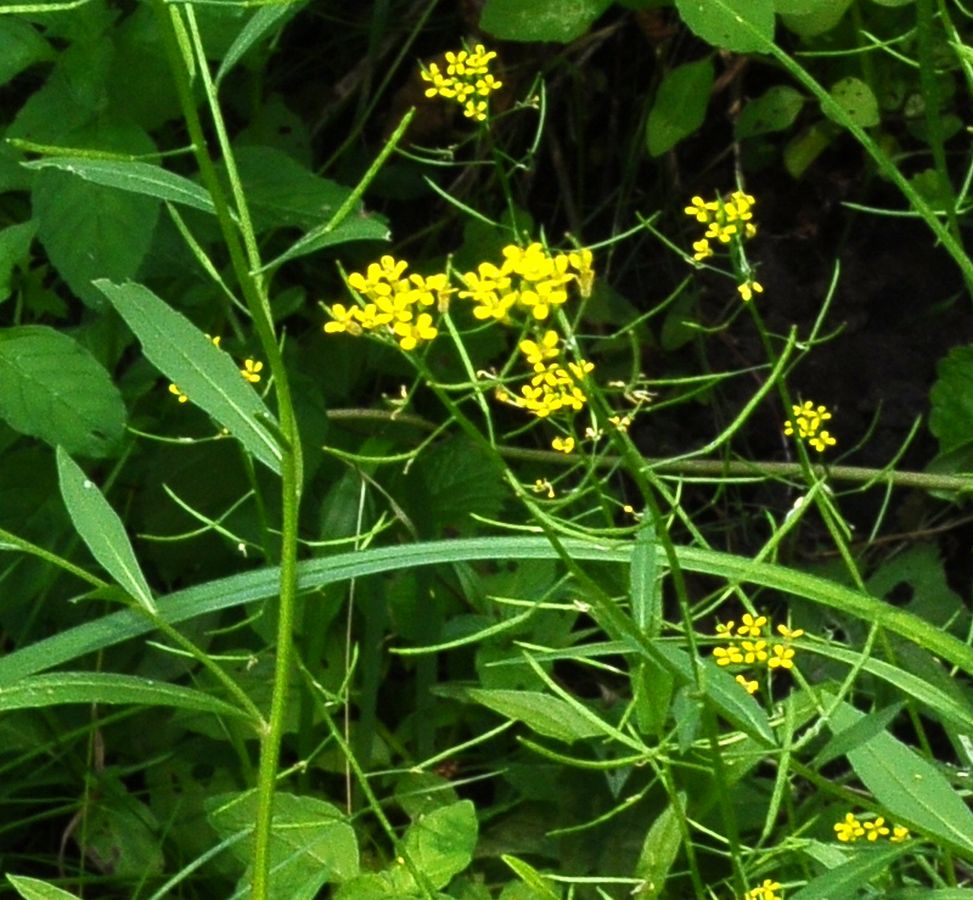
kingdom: Plantae
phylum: Tracheophyta
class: Magnoliopsida
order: Brassicales
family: Brassicaceae
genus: Erysimum
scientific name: Erysimum cheiranthoides
